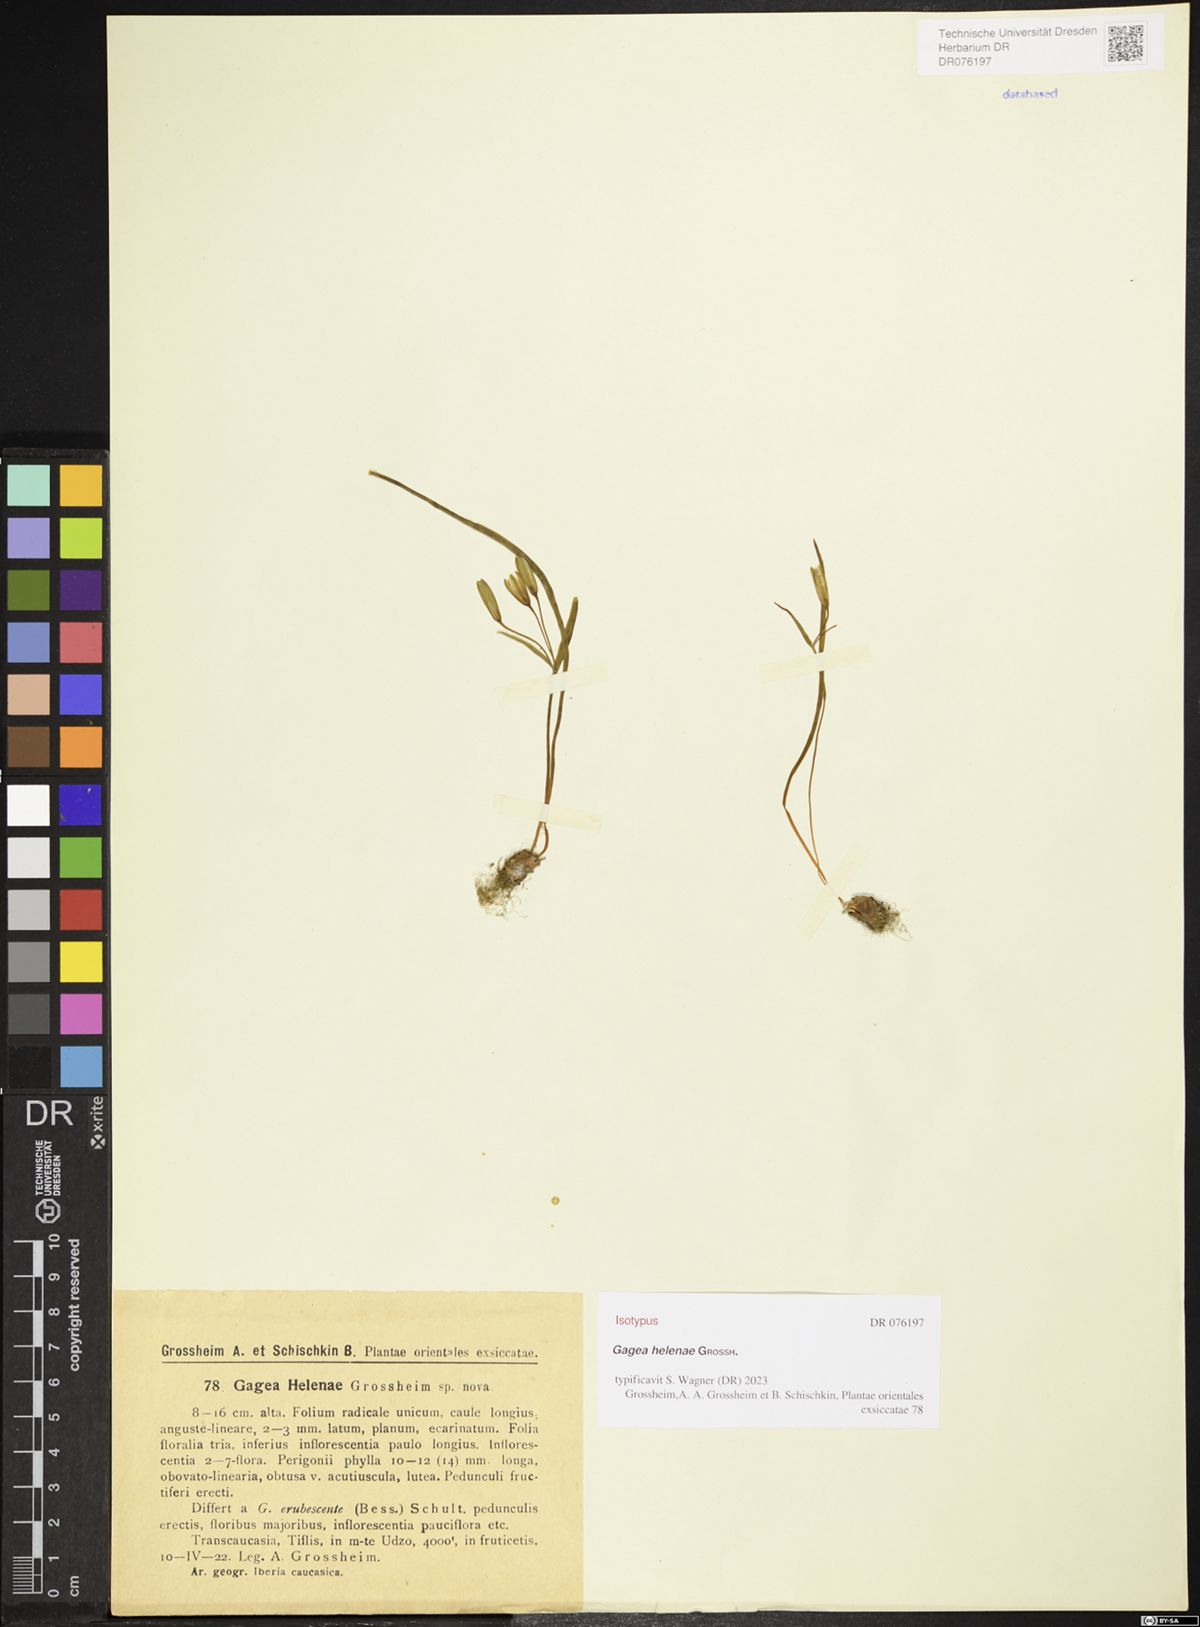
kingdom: Plantae
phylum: Tracheophyta
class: Liliopsida
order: Liliales
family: Liliaceae
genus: Gagea
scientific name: Gagea helenae
